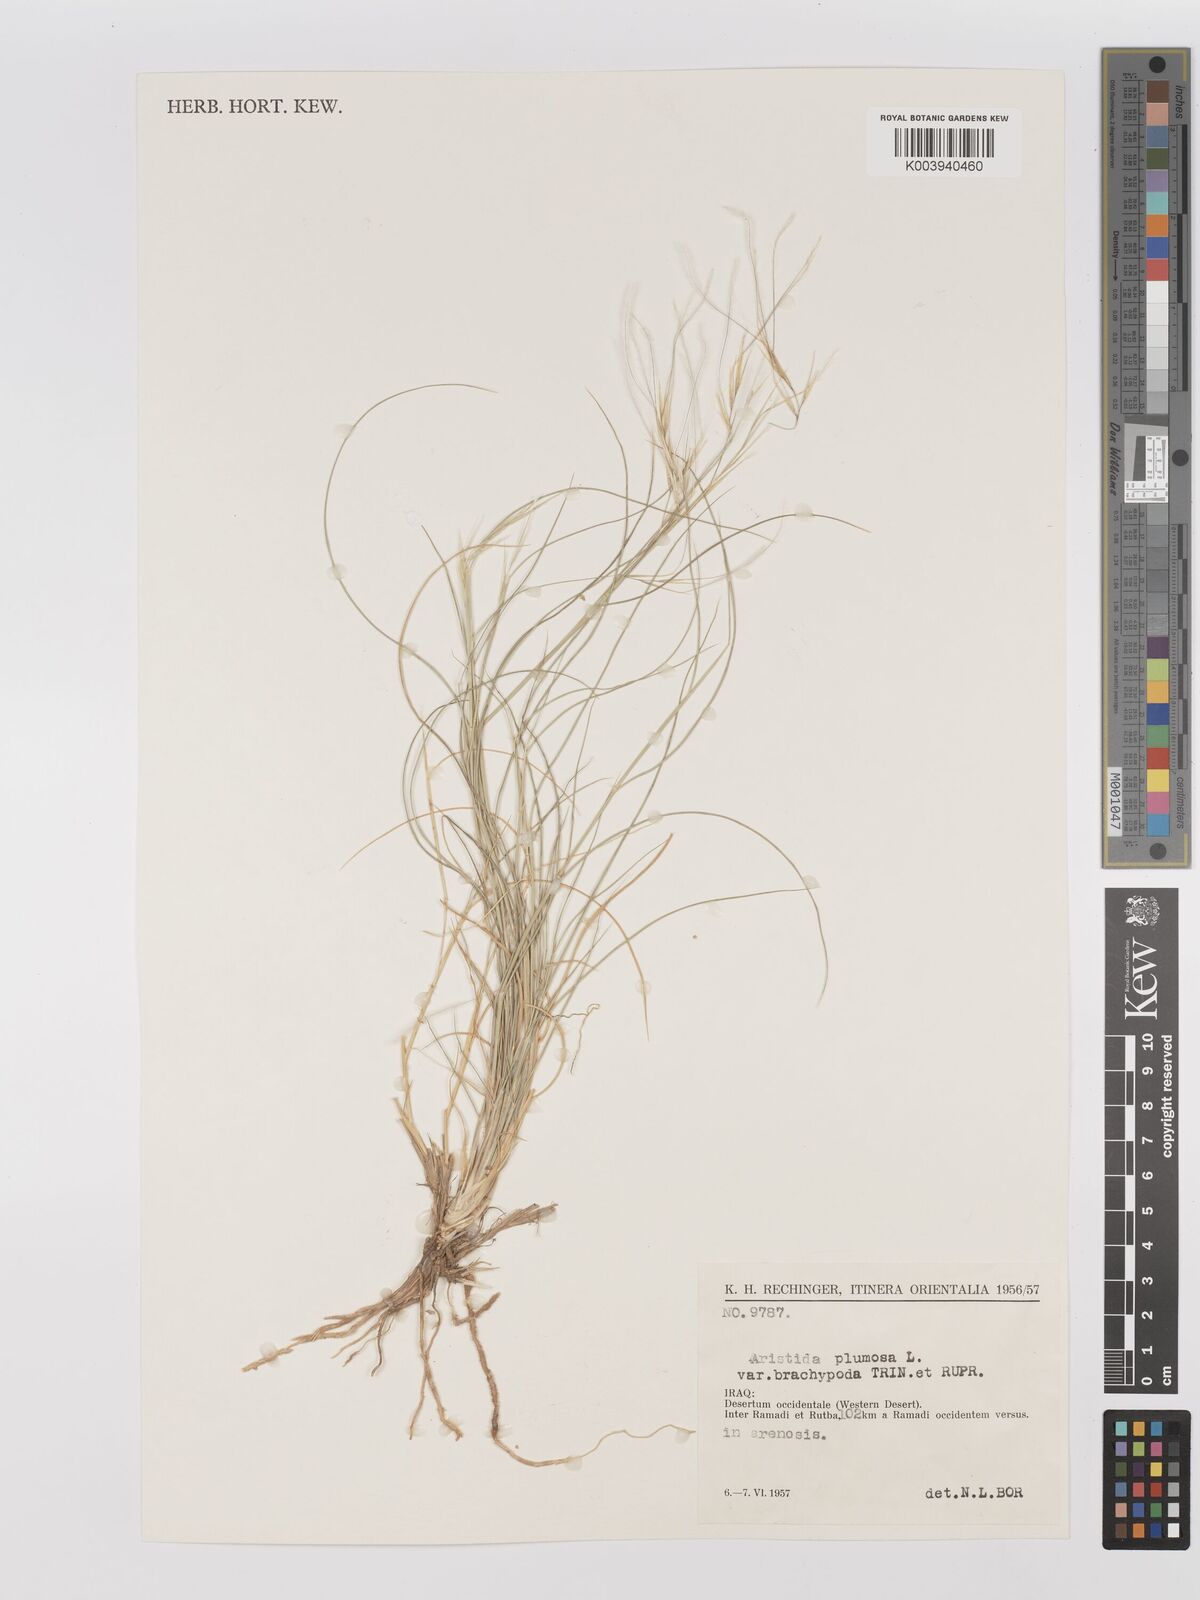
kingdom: Plantae
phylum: Tracheophyta
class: Liliopsida
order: Poales
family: Poaceae
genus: Stipagrostis
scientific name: Stipagrostis plumosa
